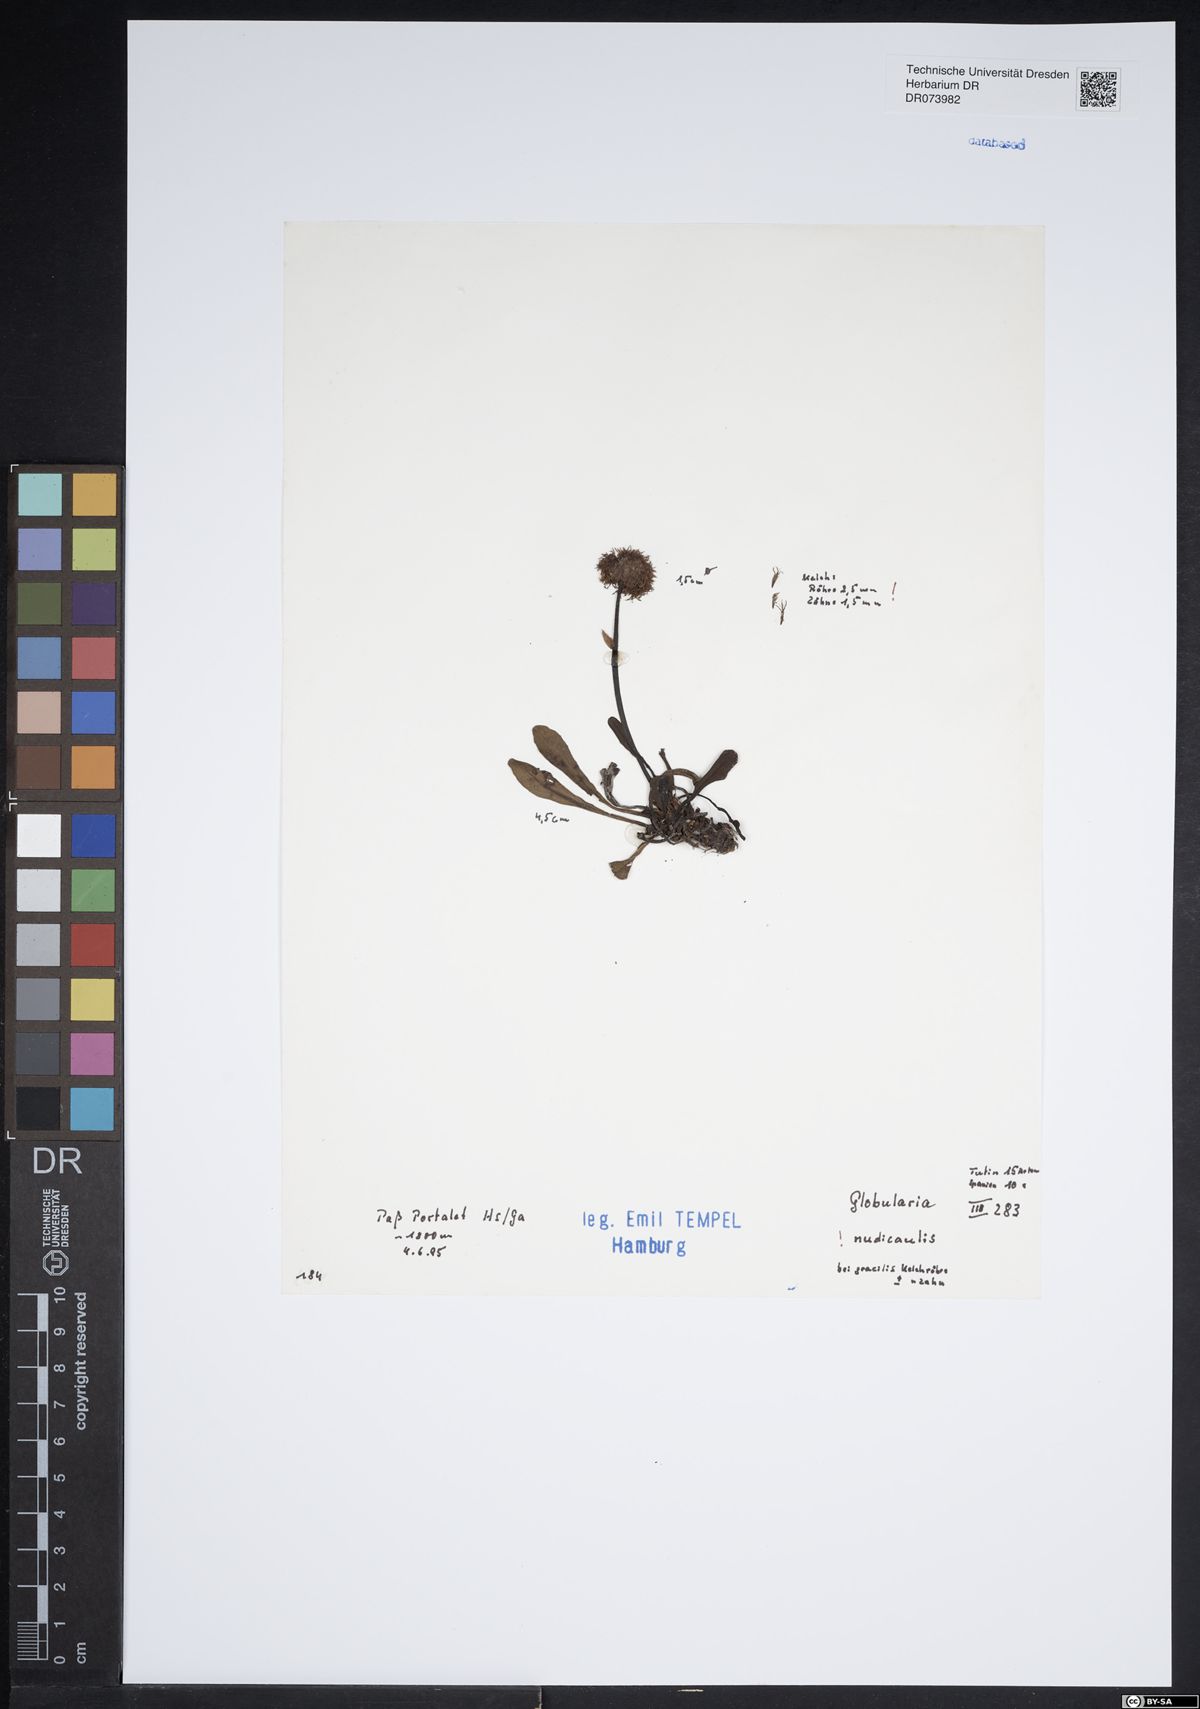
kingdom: Plantae
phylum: Tracheophyta
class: Magnoliopsida
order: Lamiales
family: Plantaginaceae
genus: Globularia
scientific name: Globularia nudicaulis
